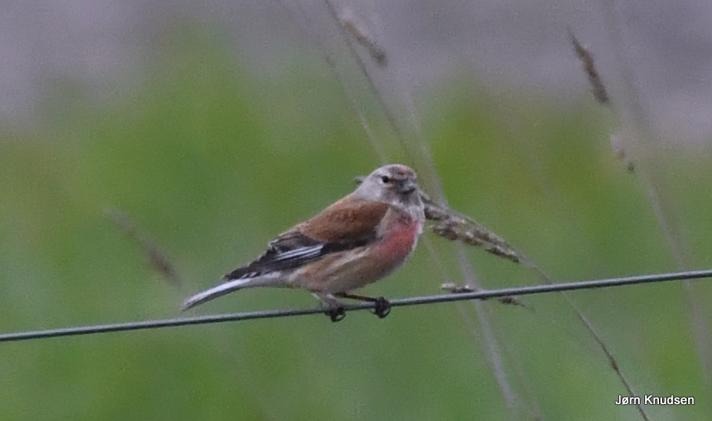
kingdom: Animalia
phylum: Chordata
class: Aves
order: Passeriformes
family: Fringillidae
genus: Linaria
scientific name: Linaria cannabina
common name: Tornirisk
